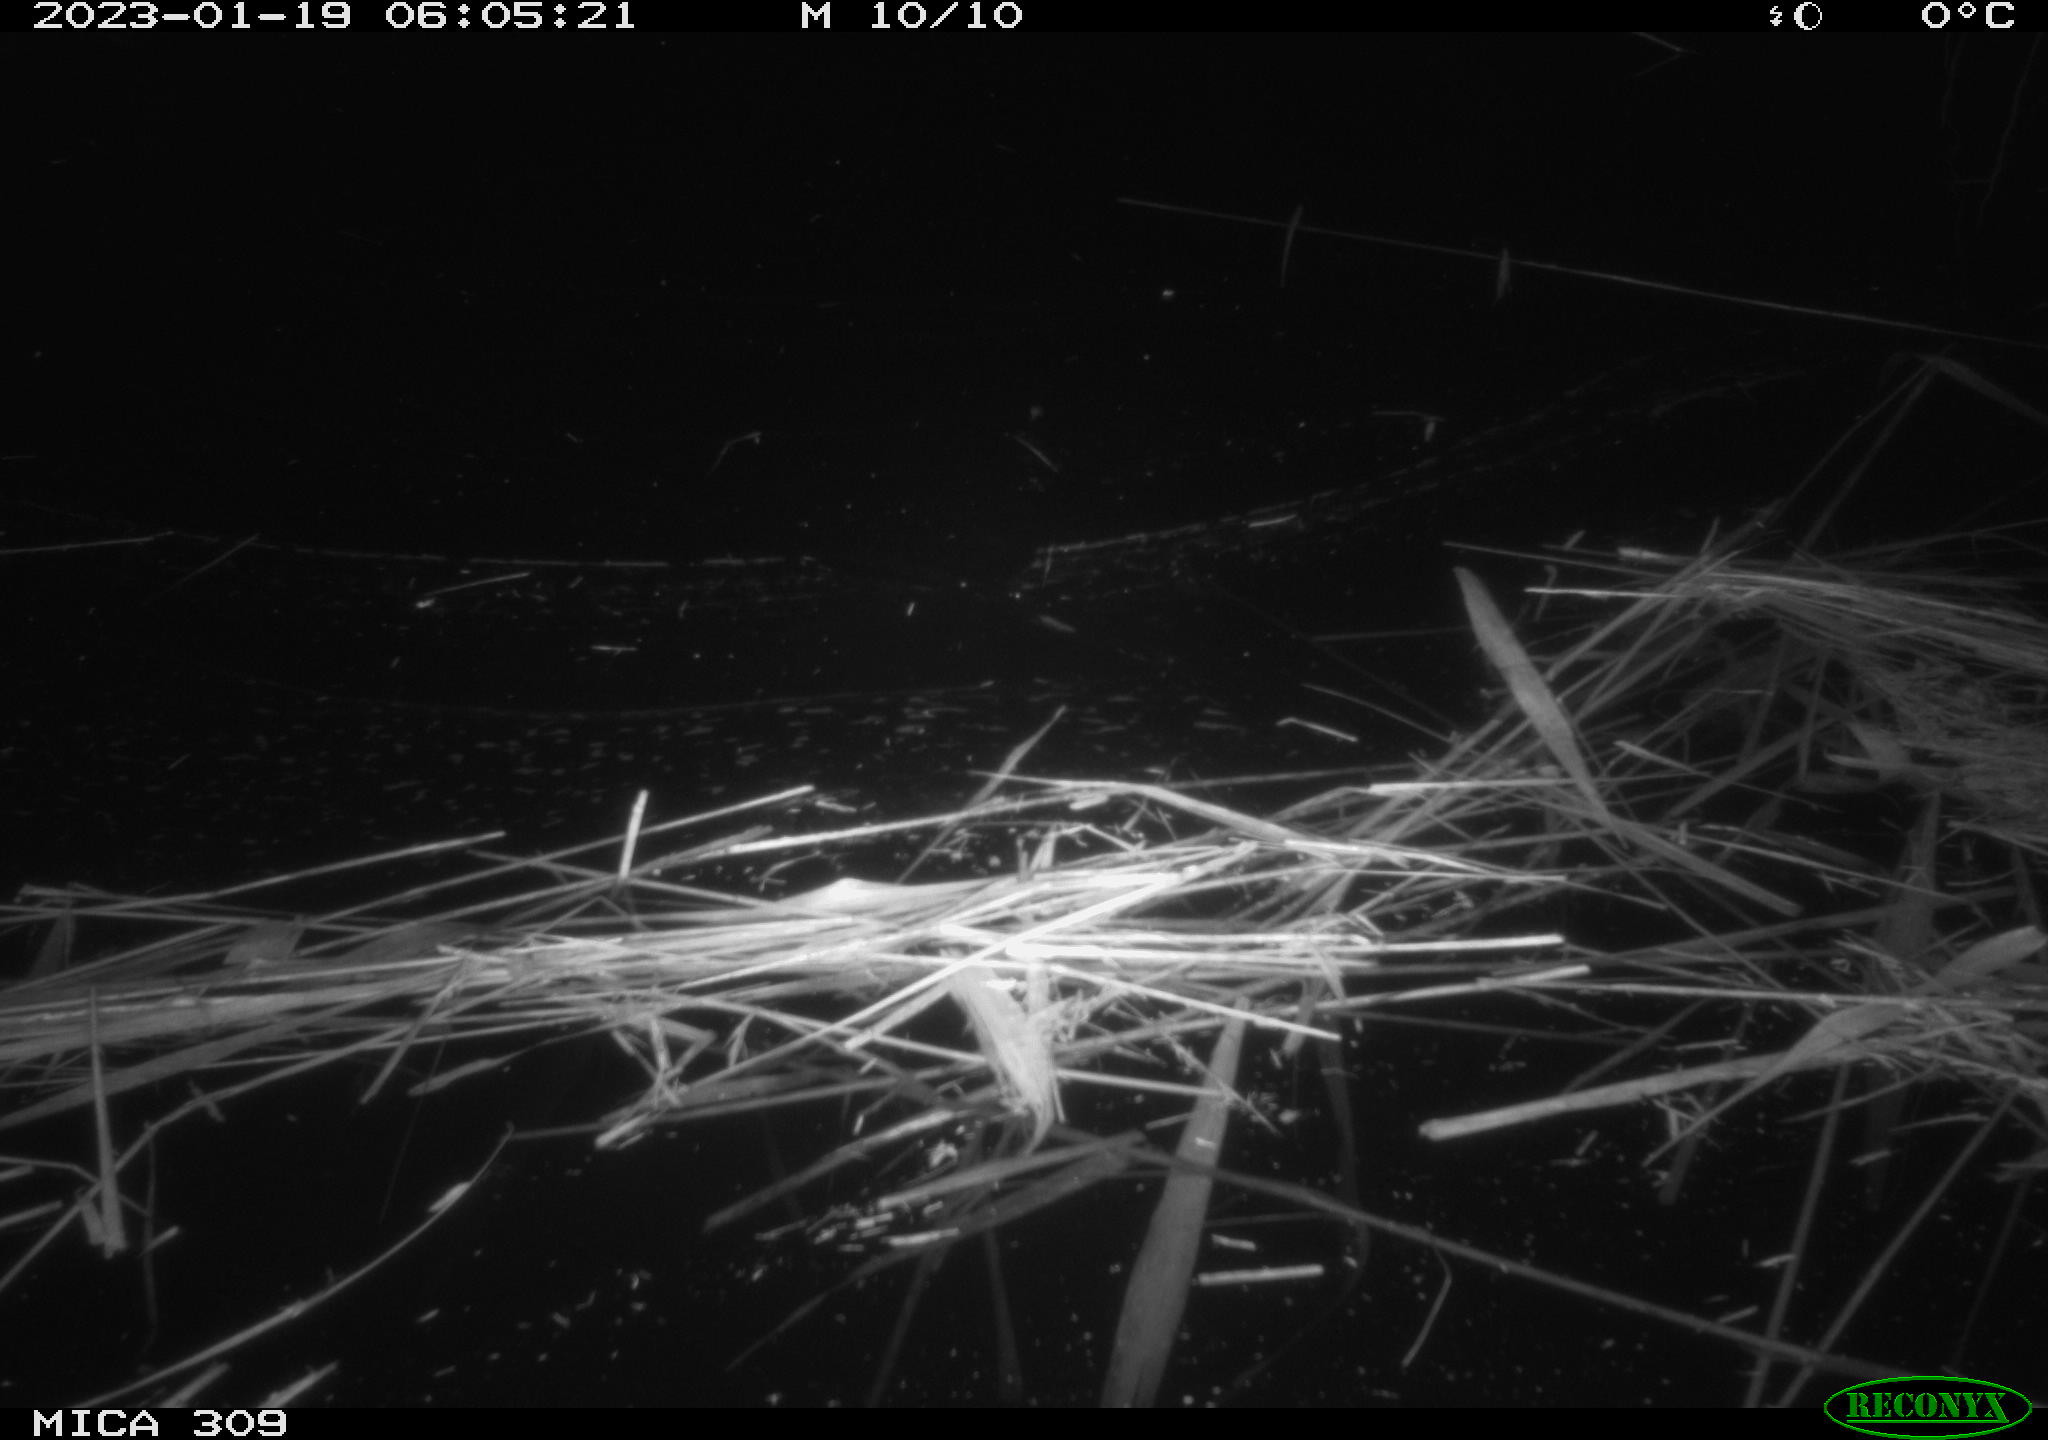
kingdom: Animalia
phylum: Chordata
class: Mammalia
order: Rodentia
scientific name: Rodentia
